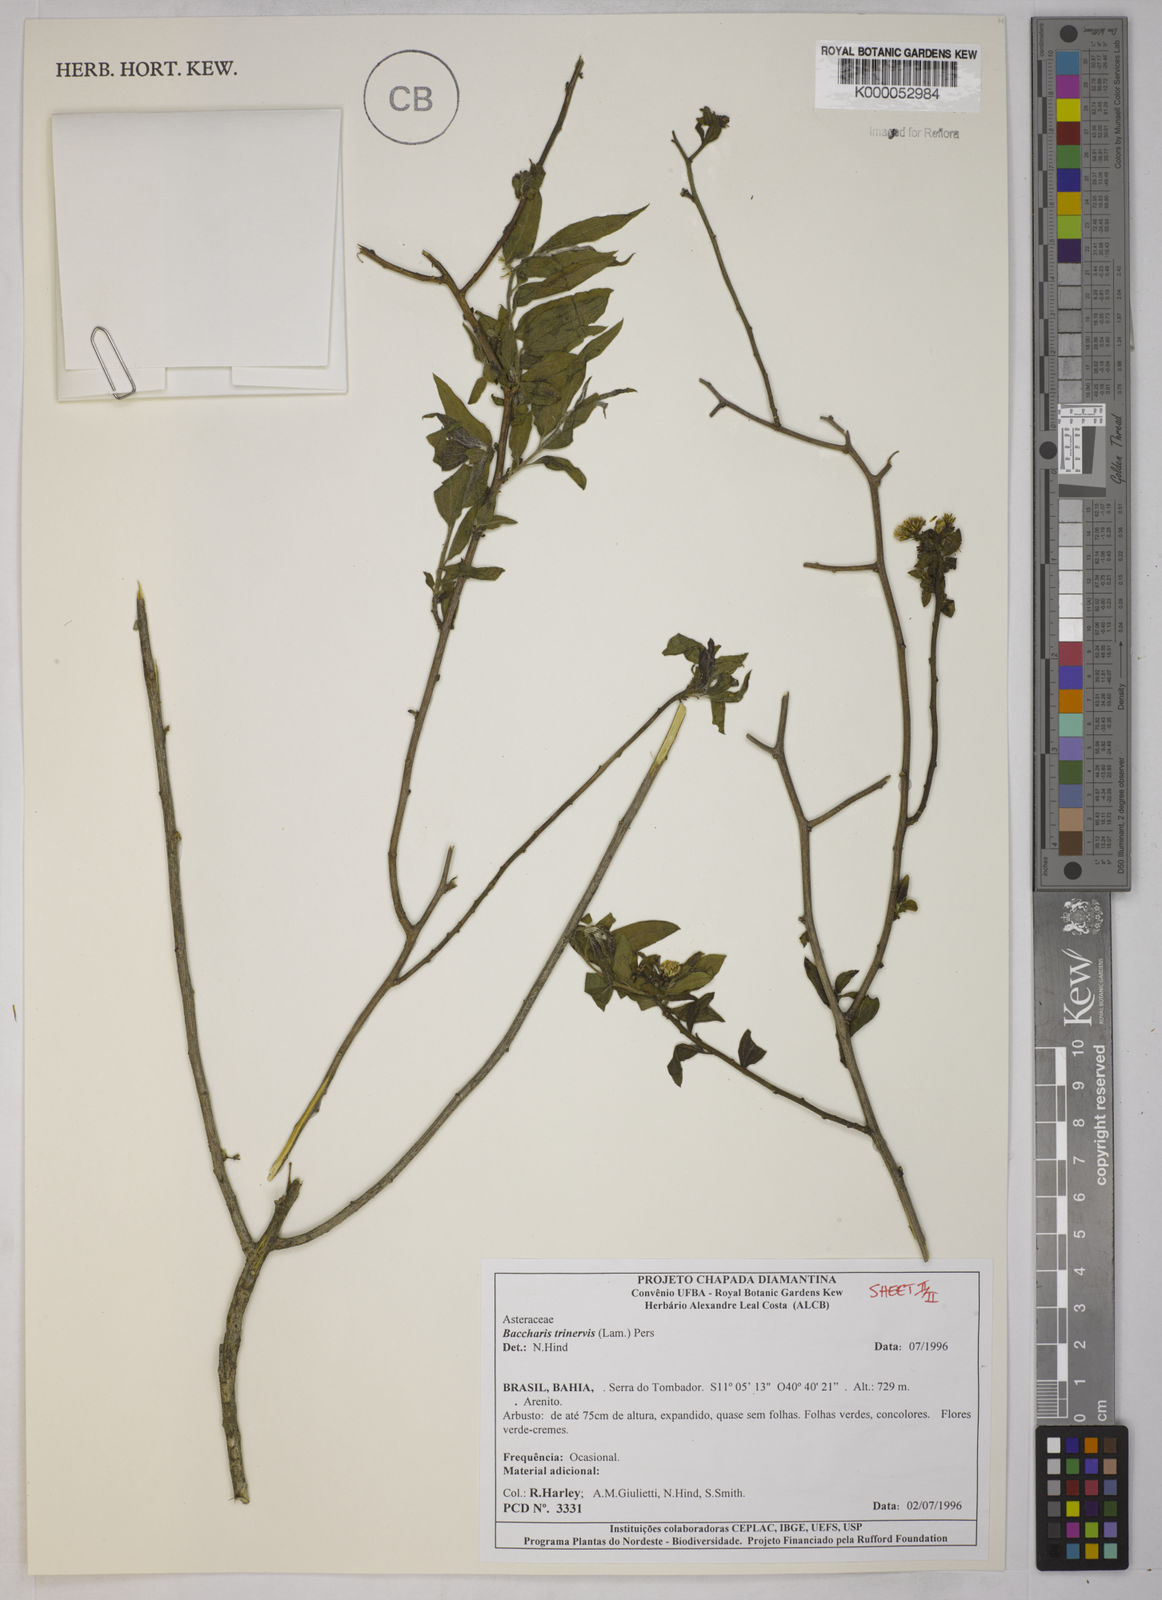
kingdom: Plantae
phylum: Tracheophyta
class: Magnoliopsida
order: Asterales
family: Asteraceae
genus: Baccharis
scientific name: Baccharis trinervis
